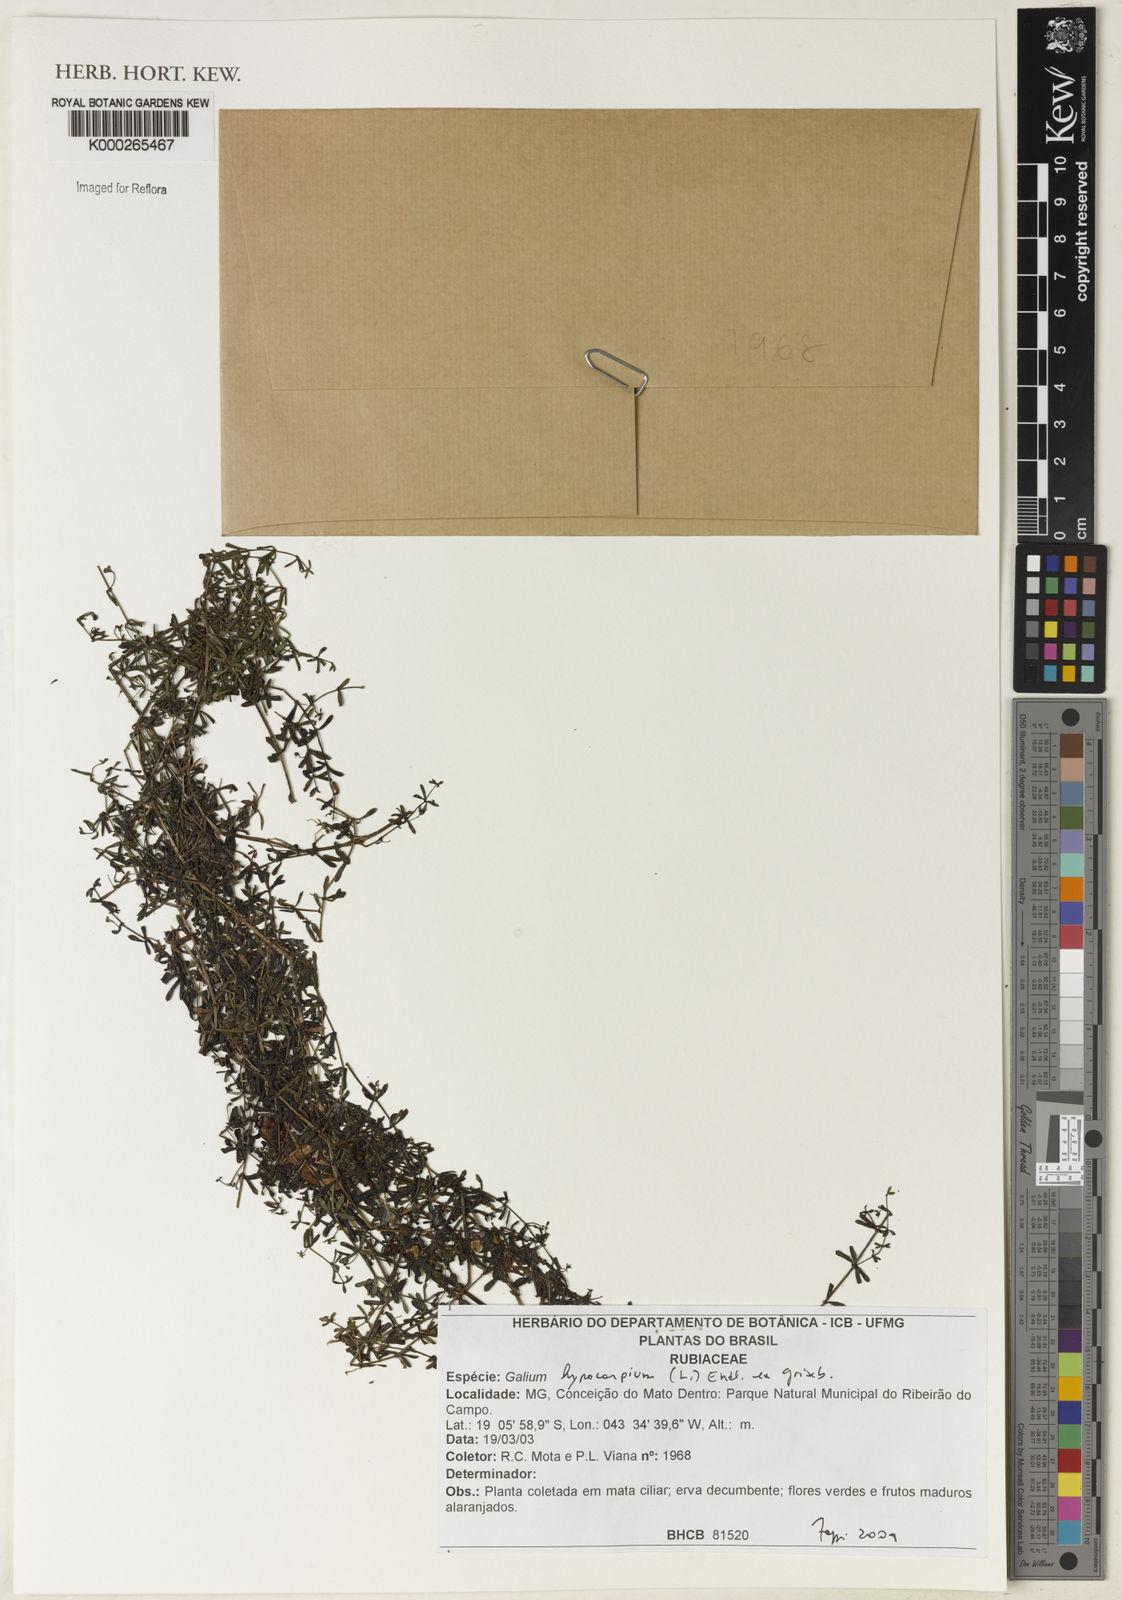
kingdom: Plantae
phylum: Tracheophyta
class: Magnoliopsida
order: Gentianales
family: Rubiaceae
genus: Galium
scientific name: Galium hypocarpium
